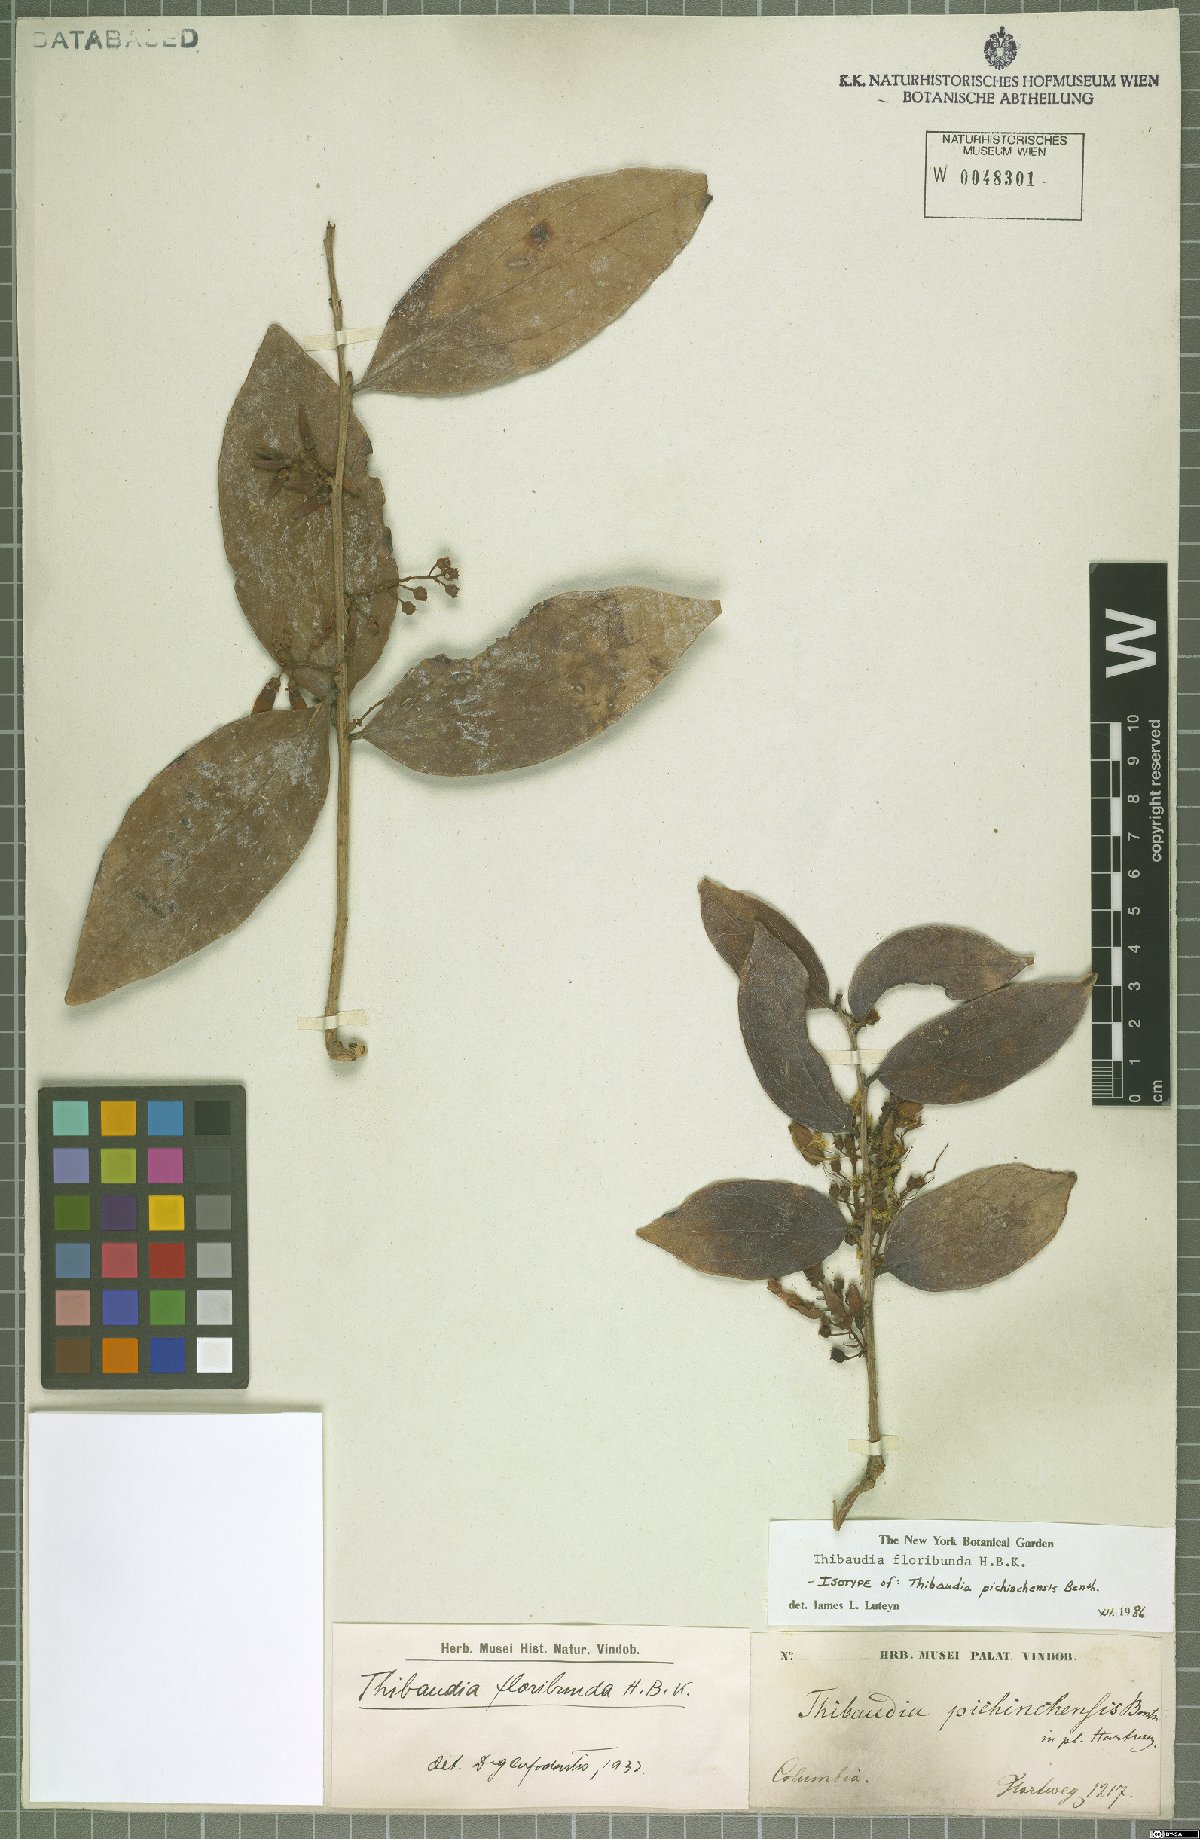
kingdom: Plantae
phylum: Tracheophyta
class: Magnoliopsida
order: Ericales
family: Ericaceae
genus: Thibaudia
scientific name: Thibaudia floribunda
